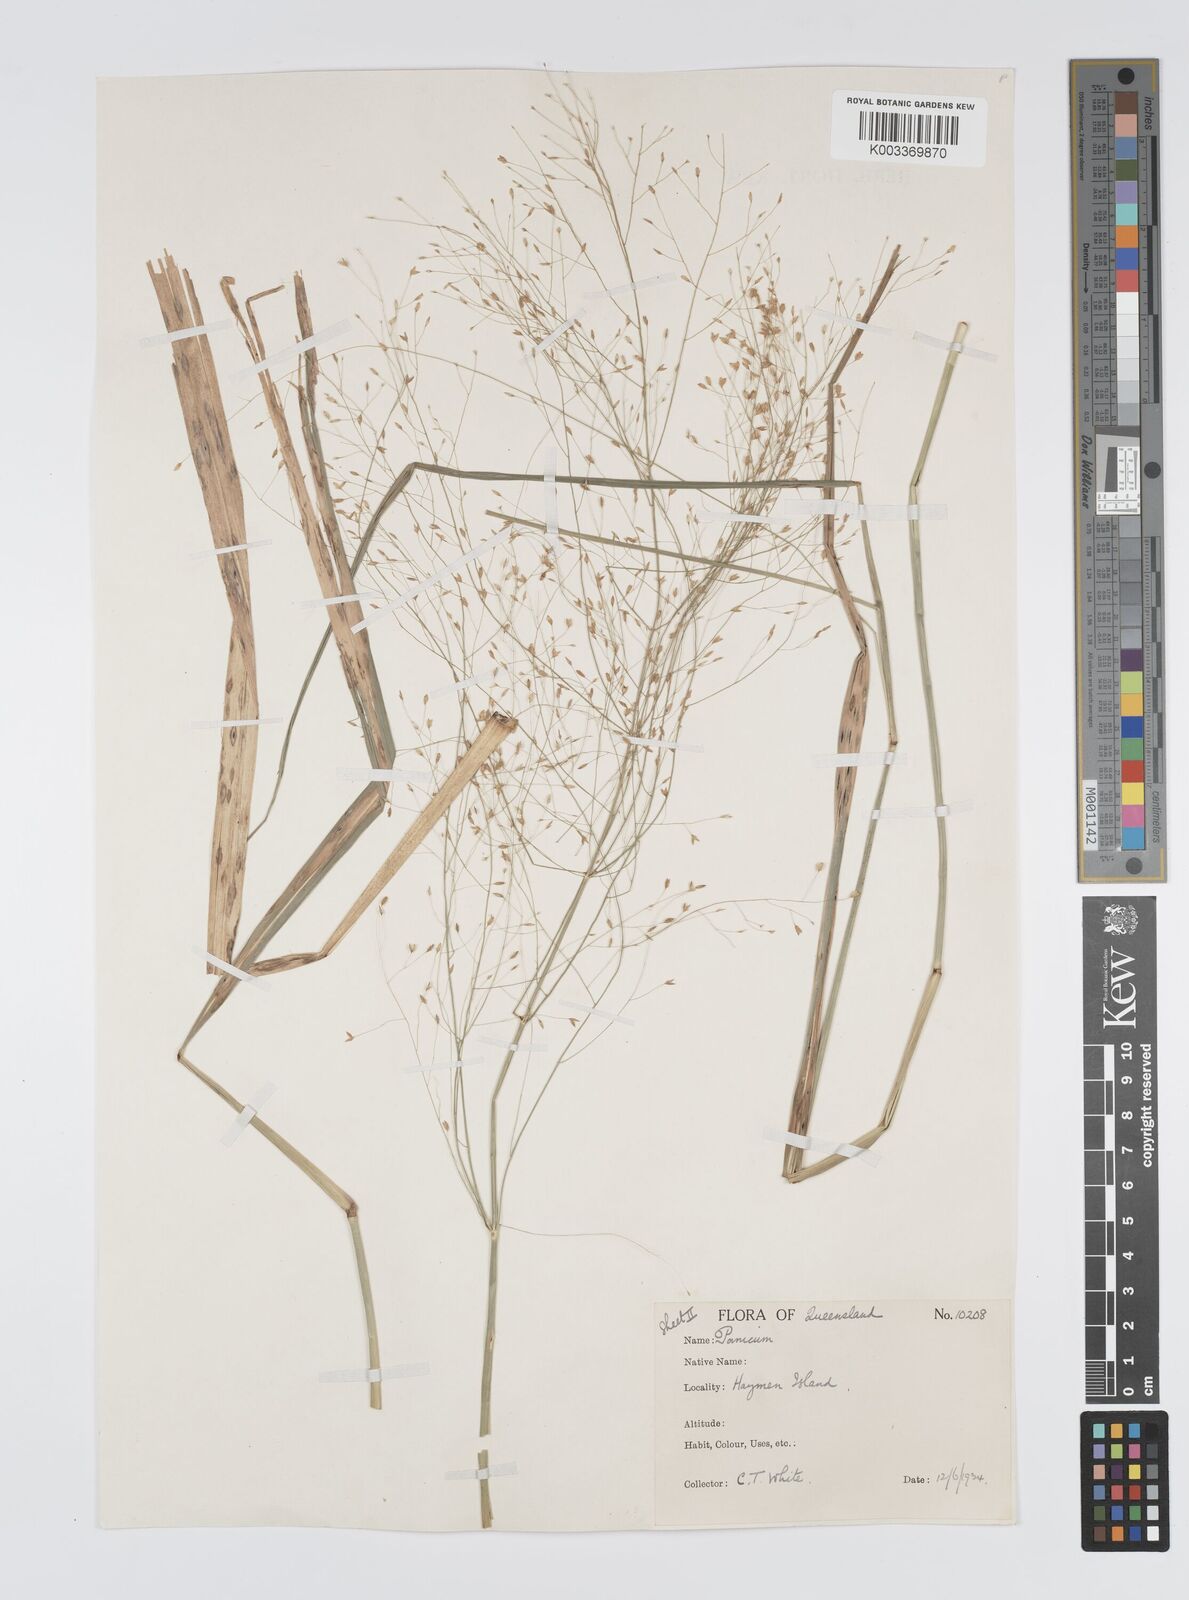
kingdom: Plantae
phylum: Tracheophyta
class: Liliopsida
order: Poales
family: Poaceae
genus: Panicum
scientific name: Panicum mitchellii
